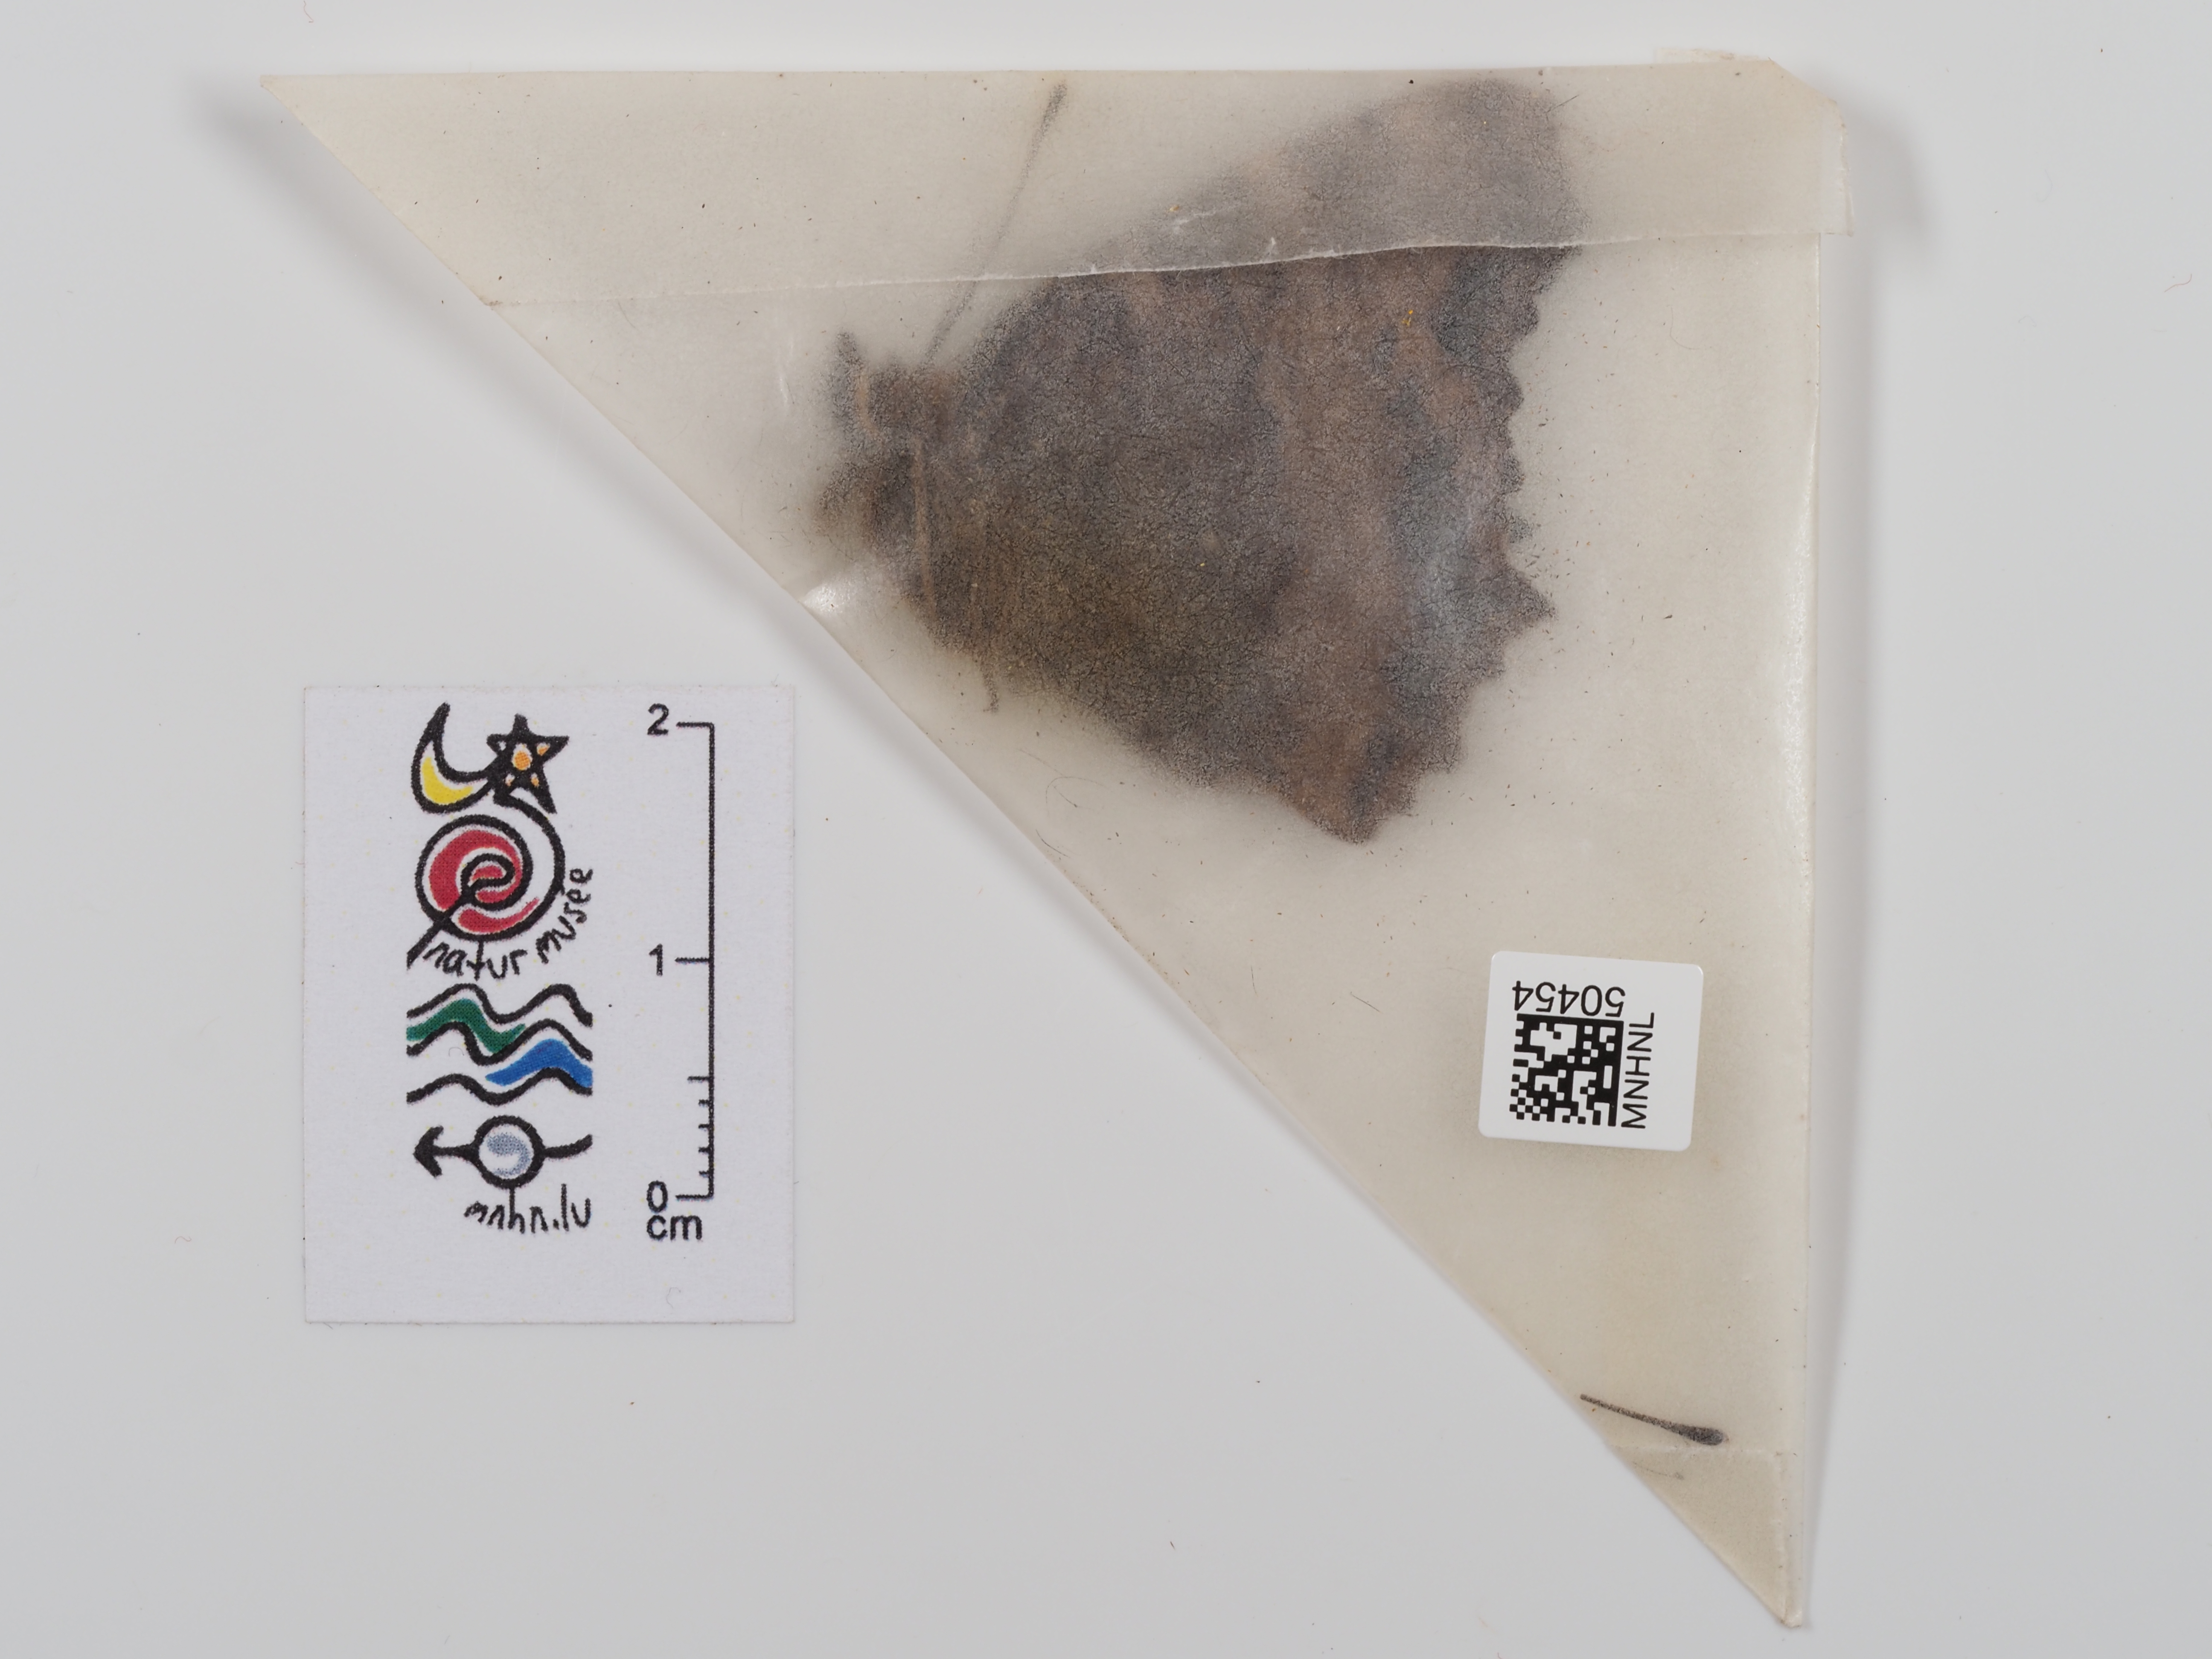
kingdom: Animalia
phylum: Arthropoda
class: Insecta
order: Lepidoptera
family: Nymphalidae
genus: Nymphalis
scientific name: Nymphalis polychloros
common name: Large tortoiseshell
